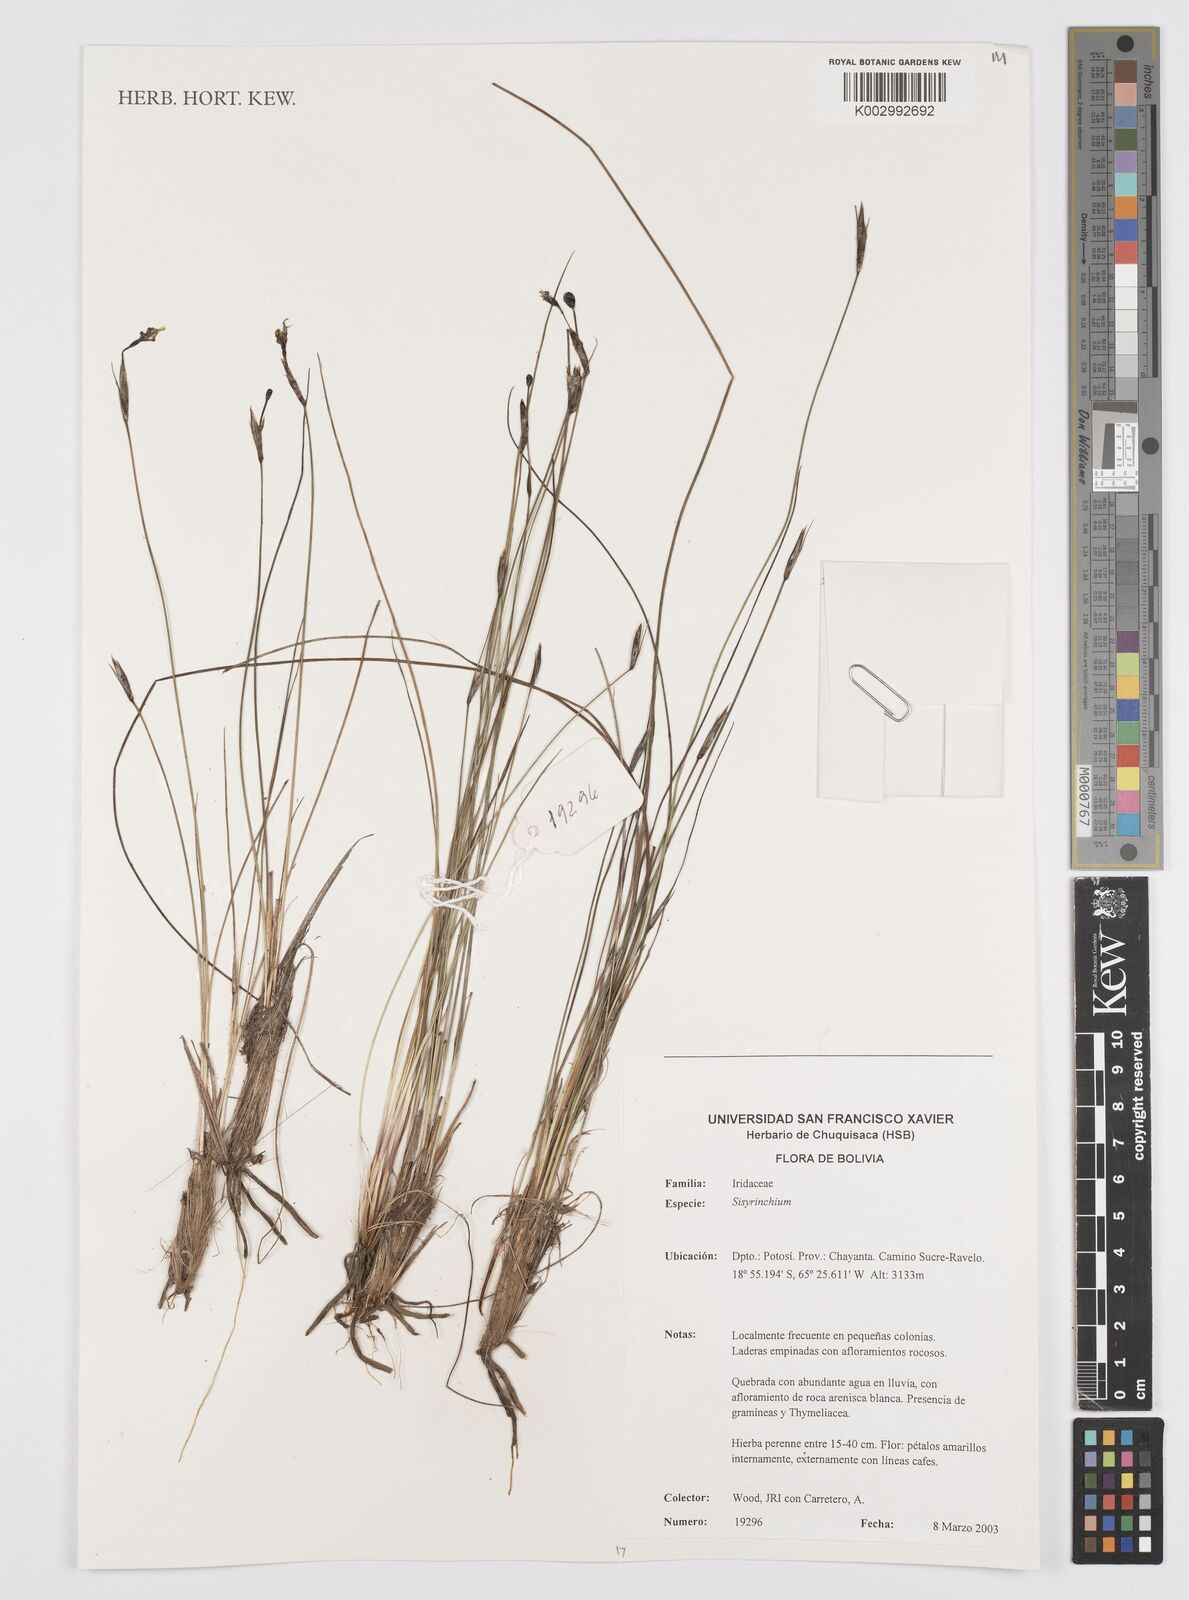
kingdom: Plantae
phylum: Tracheophyta
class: Liliopsida
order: Asparagales
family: Iridaceae
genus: Sisyrinchium
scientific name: Sisyrinchium
